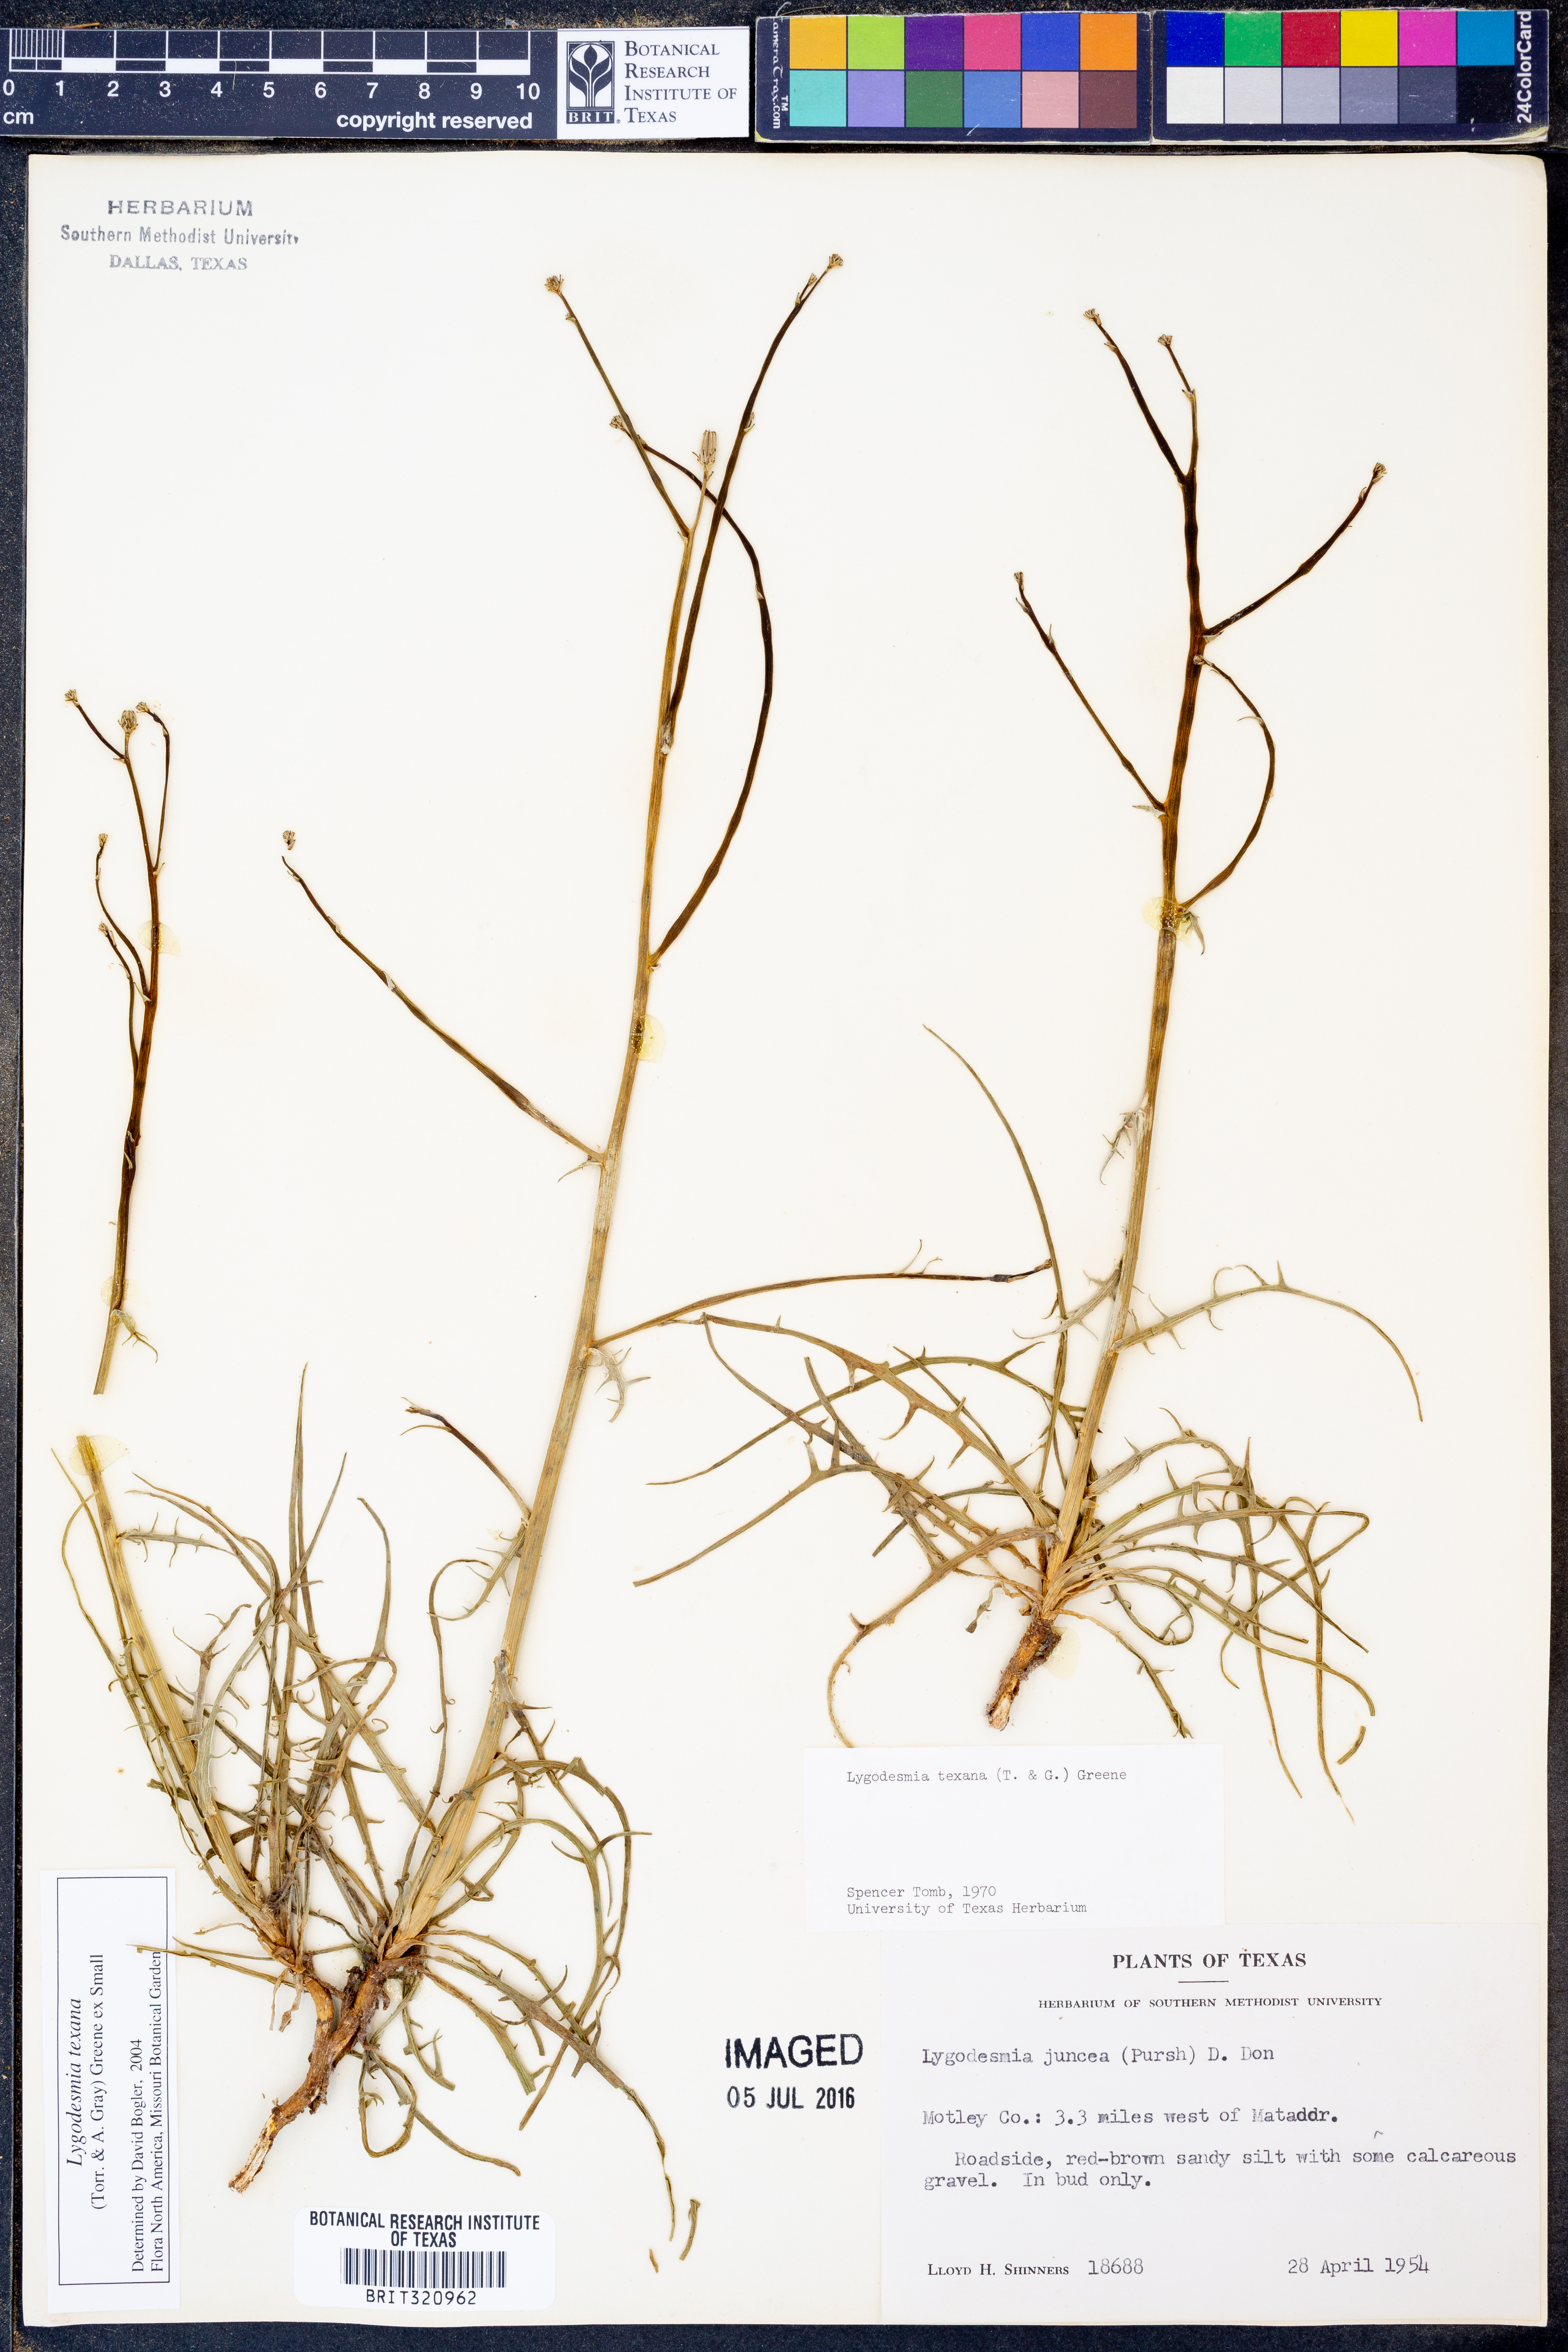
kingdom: Plantae
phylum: Tracheophyta
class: Magnoliopsida
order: Asterales
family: Asteraceae
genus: Lygodesmia
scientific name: Lygodesmia texana
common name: Texas skeleton-plant
